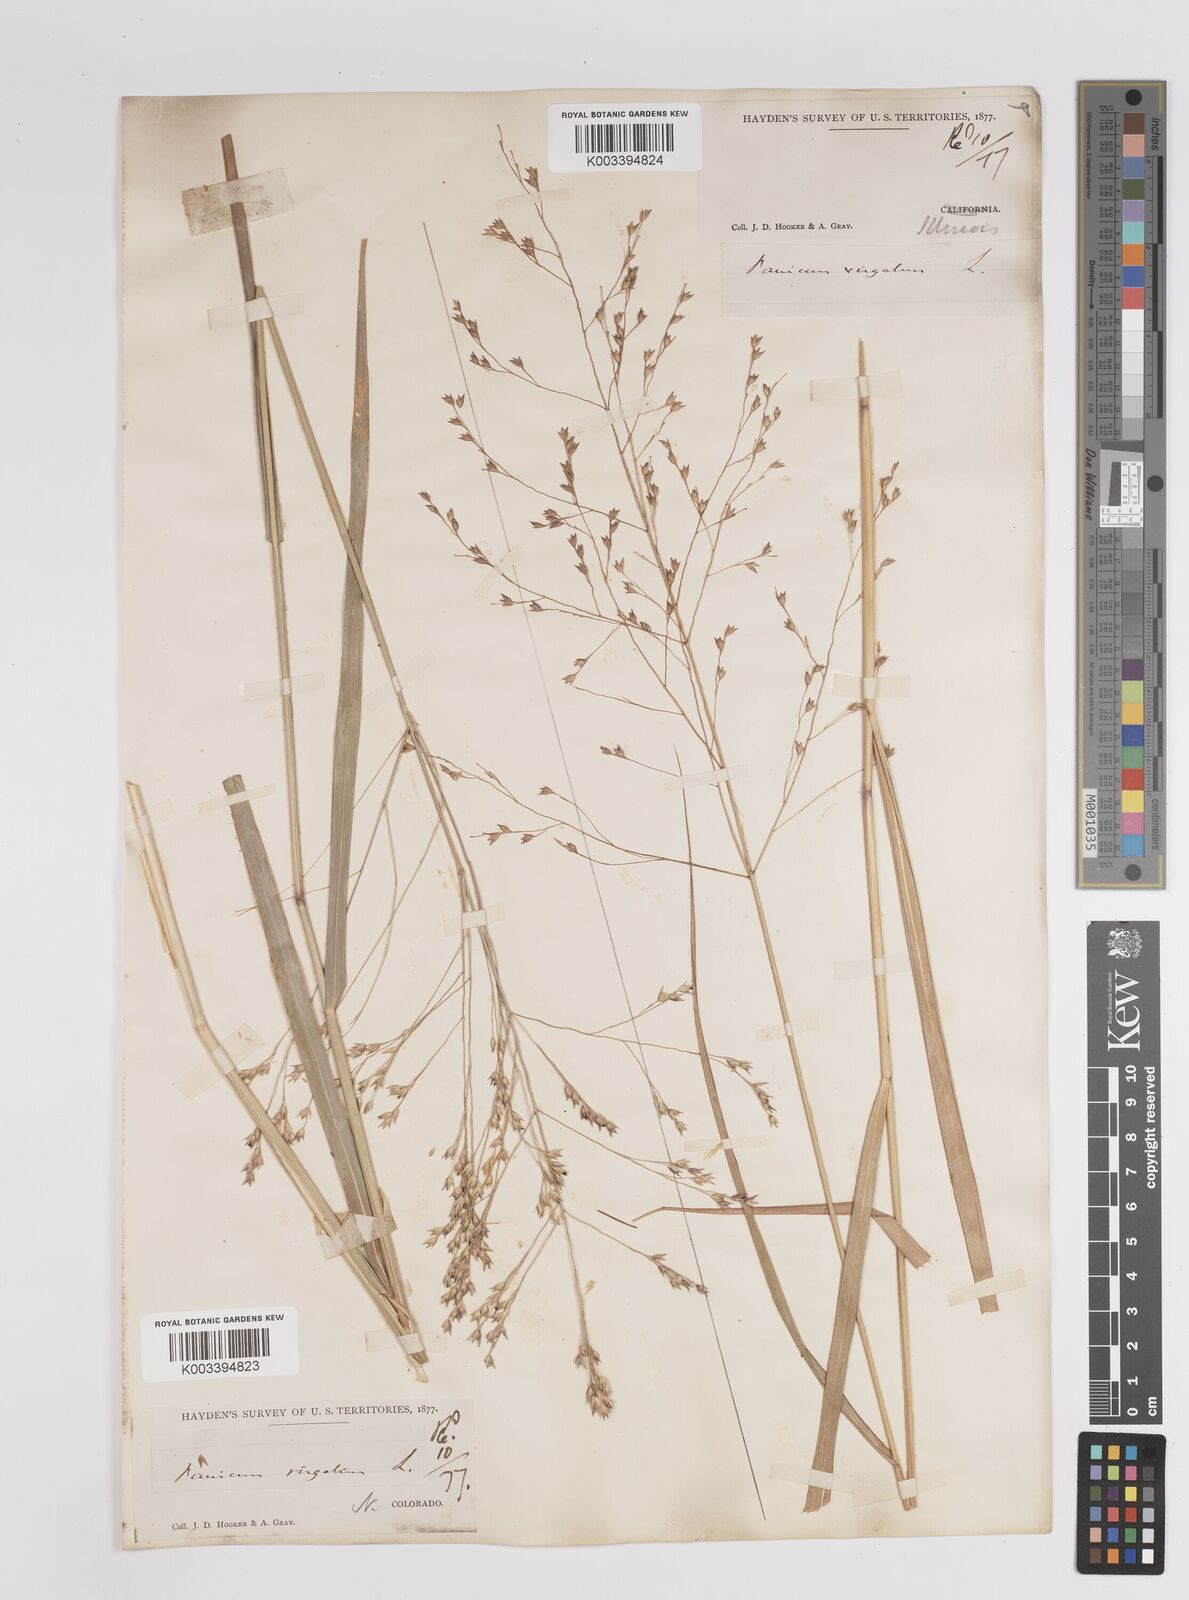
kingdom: Plantae
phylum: Tracheophyta
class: Liliopsida
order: Poales
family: Poaceae
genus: Panicum
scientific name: Panicum virgatum
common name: Switchgrass
